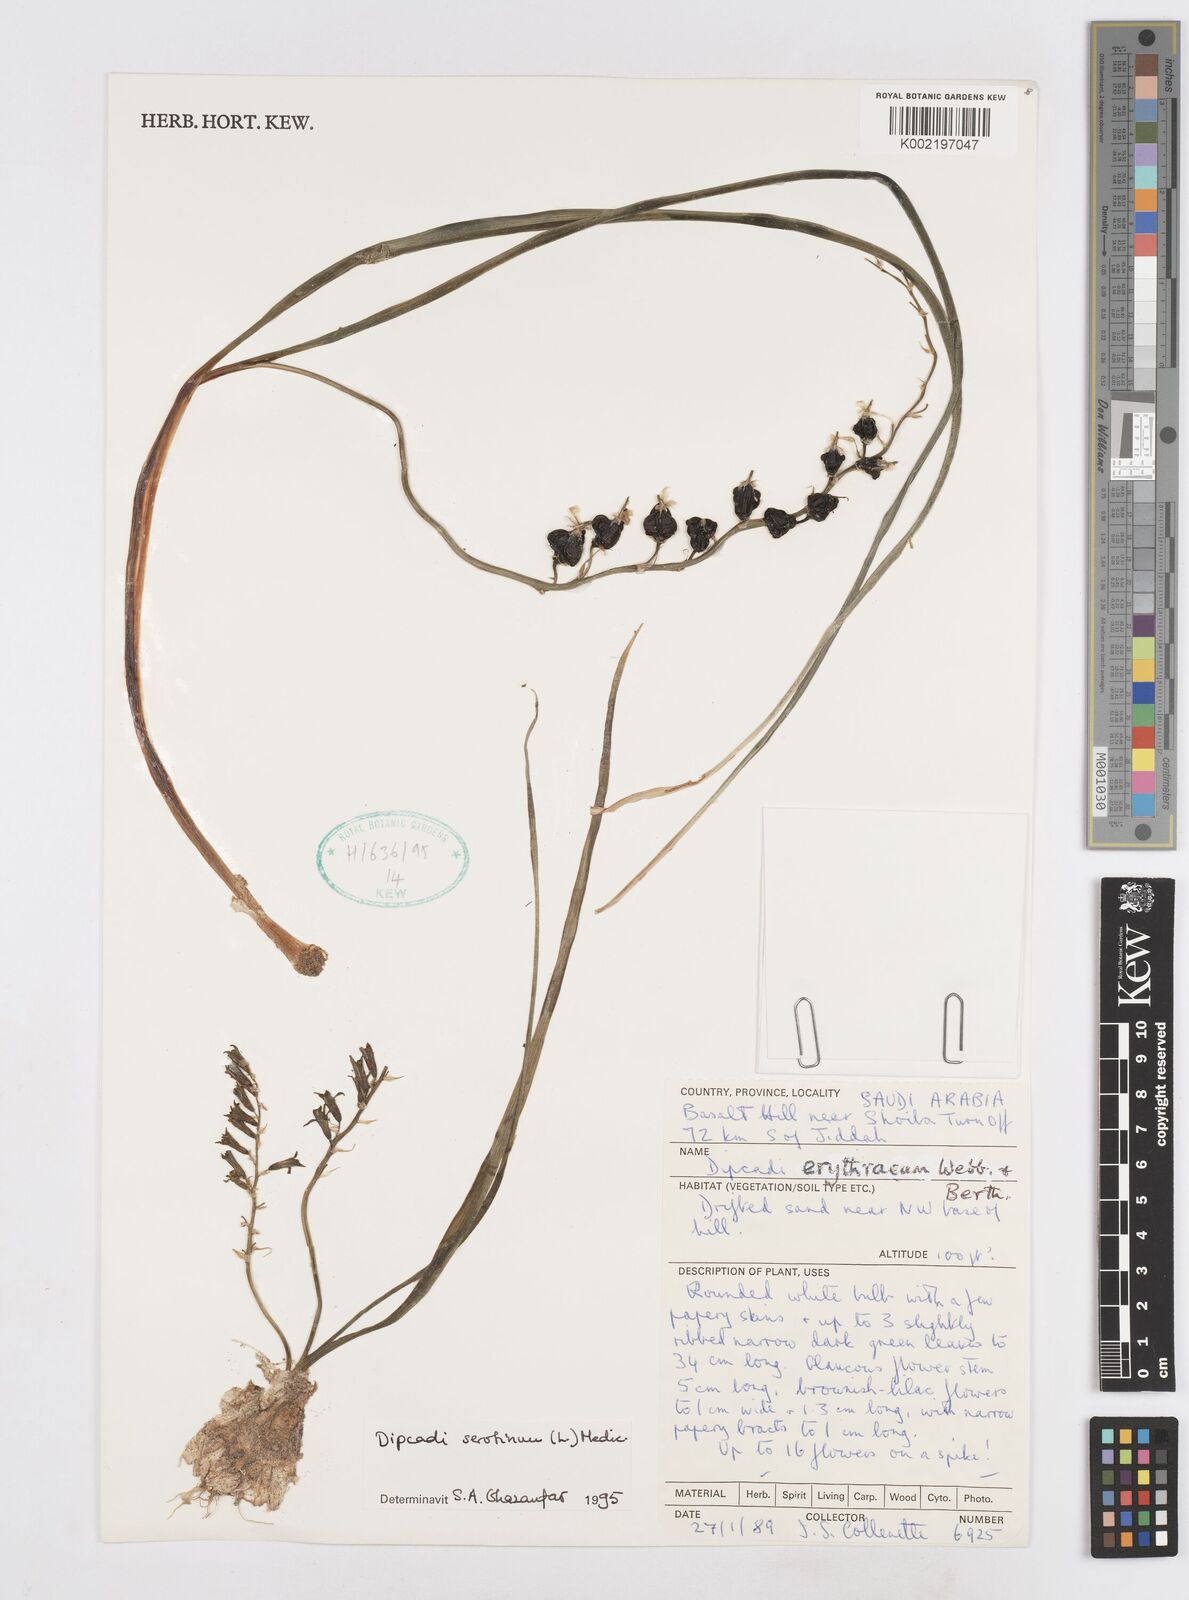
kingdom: Plantae
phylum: Tracheophyta
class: Liliopsida
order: Asparagales
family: Asparagaceae
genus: Dipcadi
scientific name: Dipcadi serotinum
